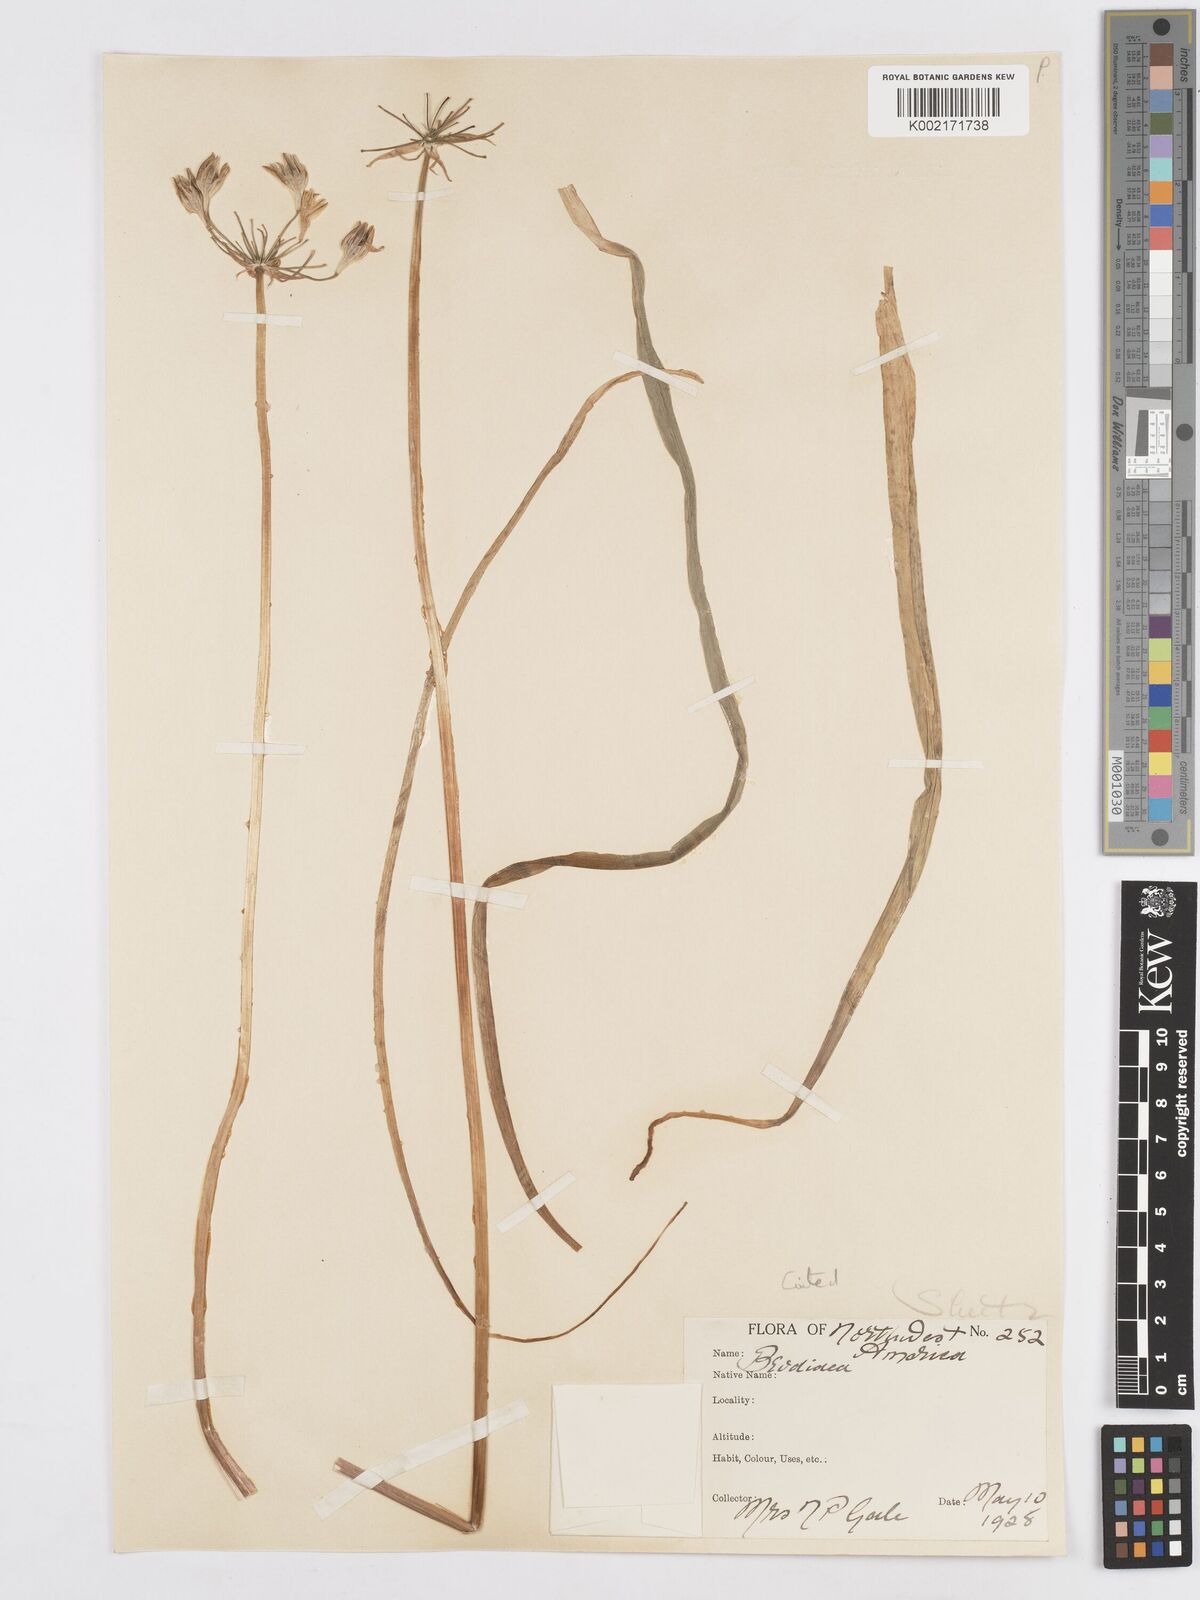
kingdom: Plantae
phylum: Tracheophyta
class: Liliopsida
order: Asparagales
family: Asparagaceae
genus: Triteleia
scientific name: Triteleia crocea
